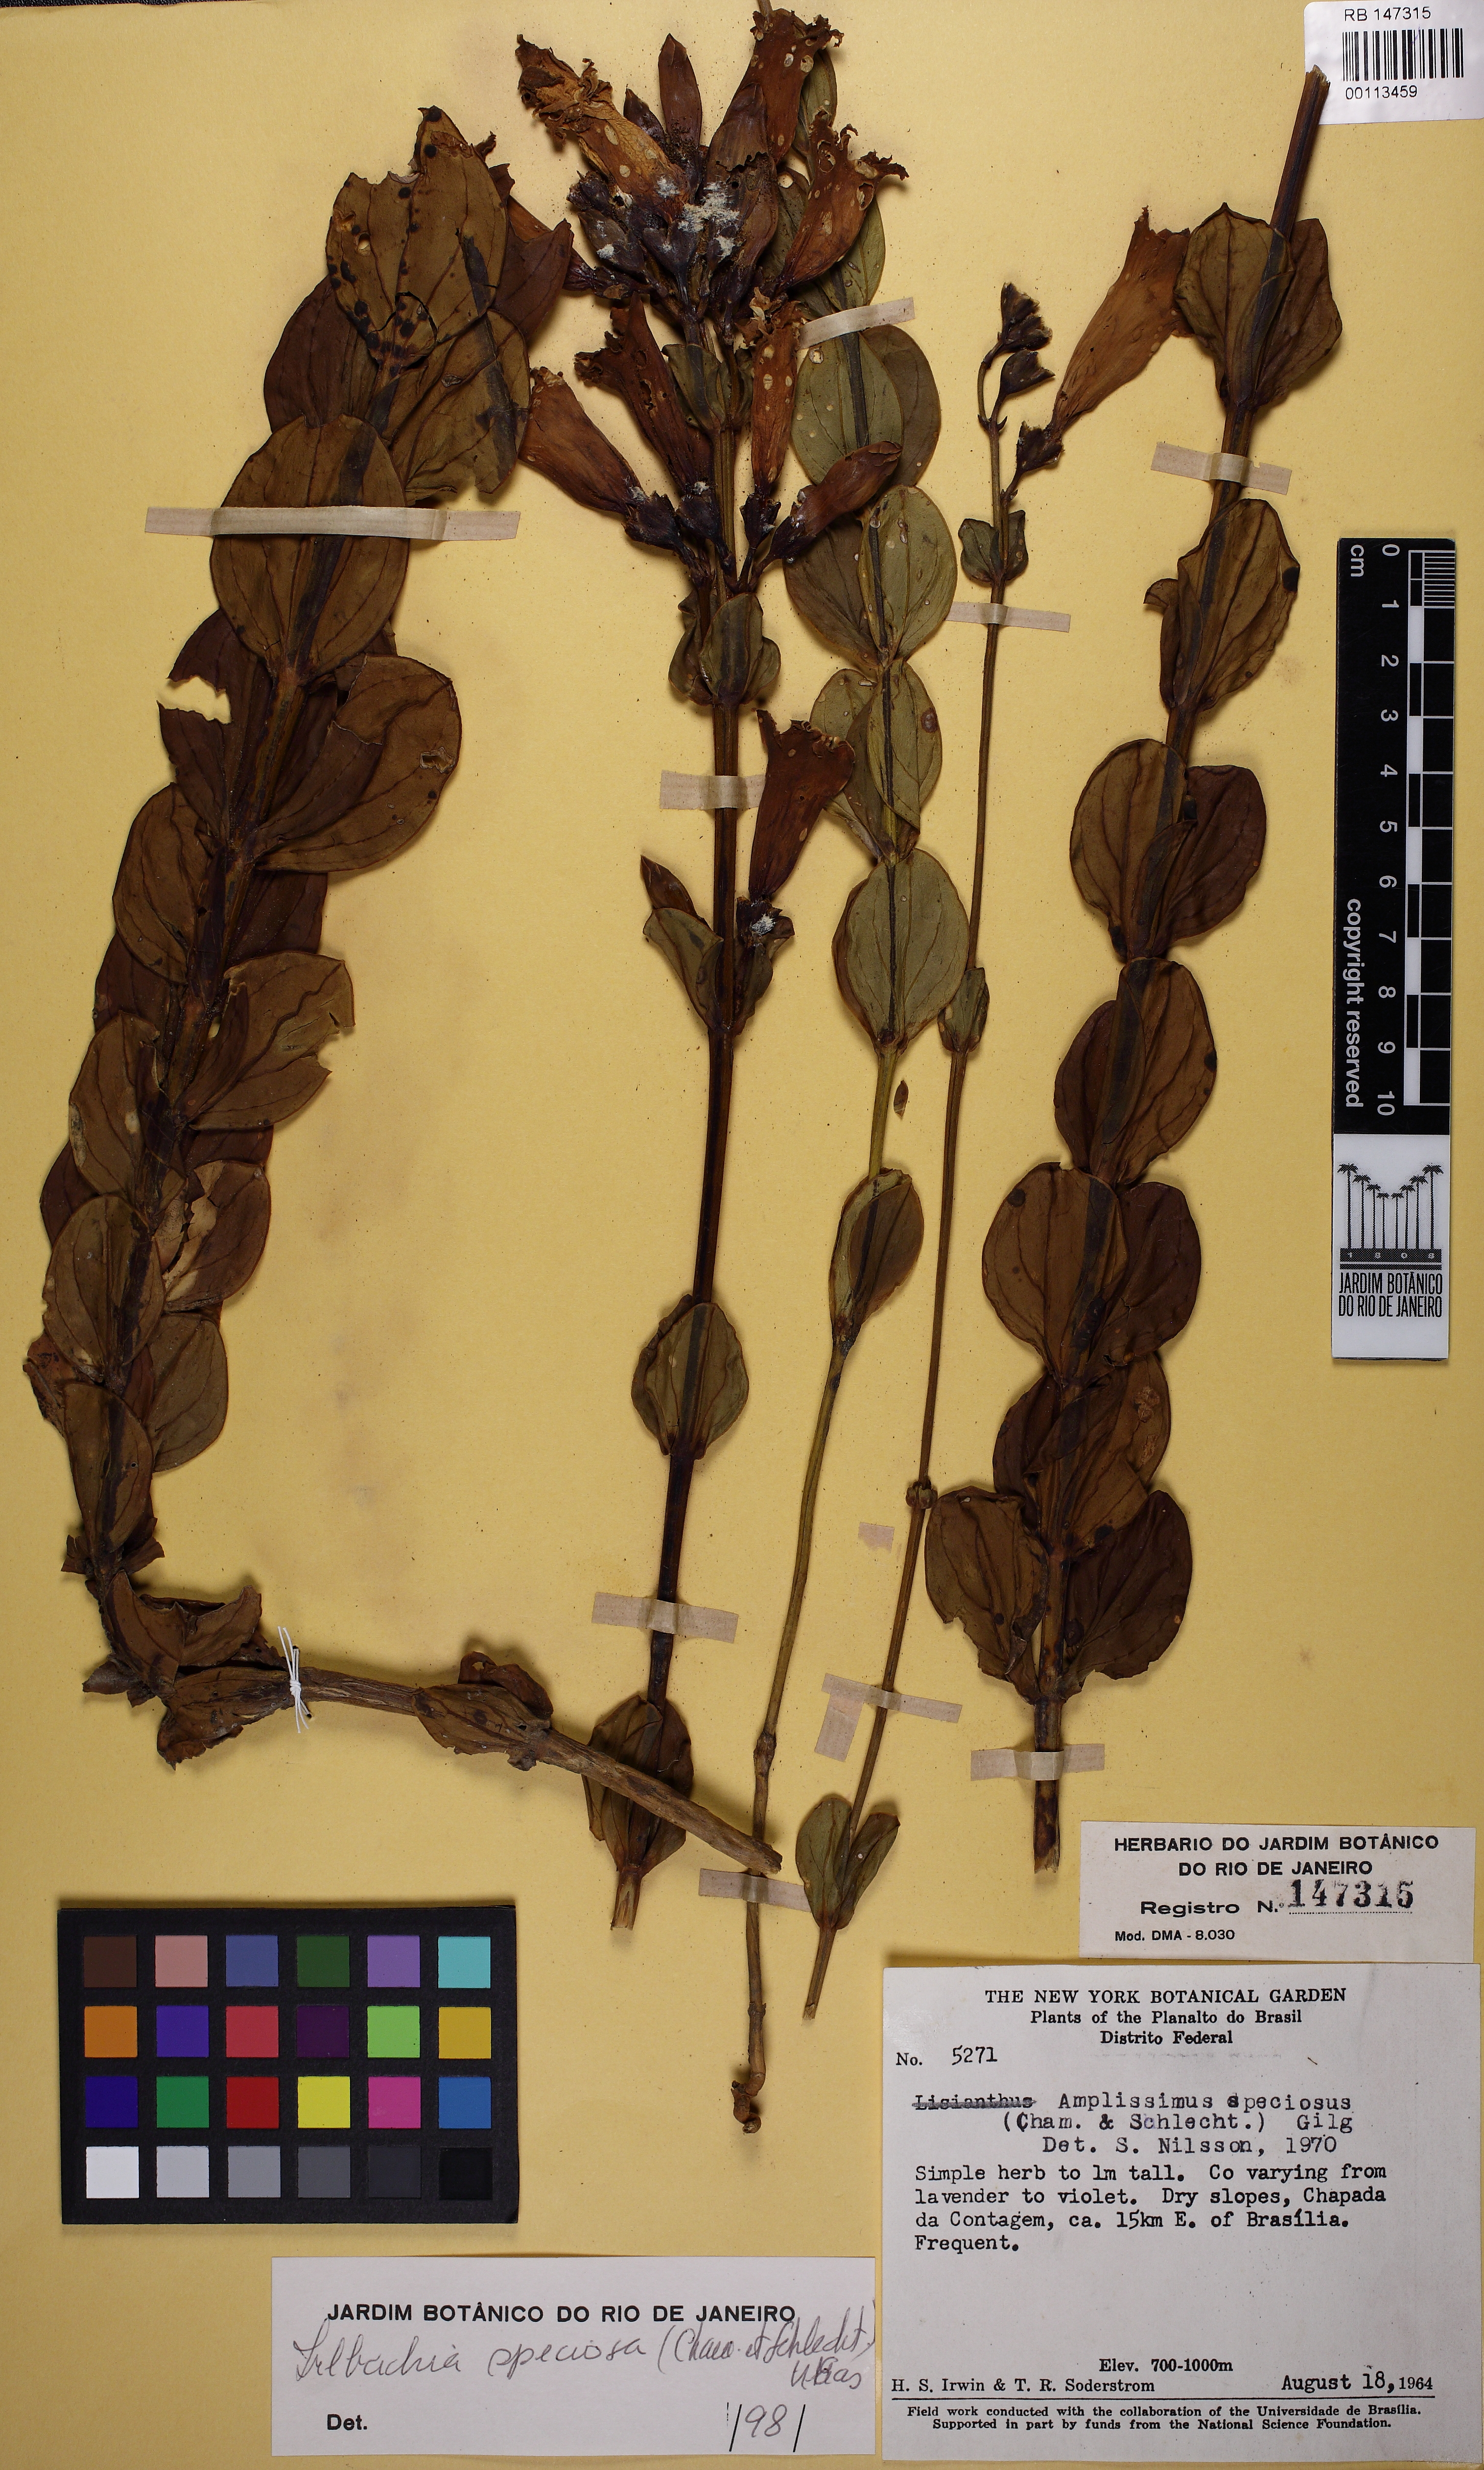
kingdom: Plantae
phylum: Tracheophyta
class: Magnoliopsida
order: Gentianales
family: Gentianaceae
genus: Calolisianthus
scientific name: Calolisianthus speciosus
